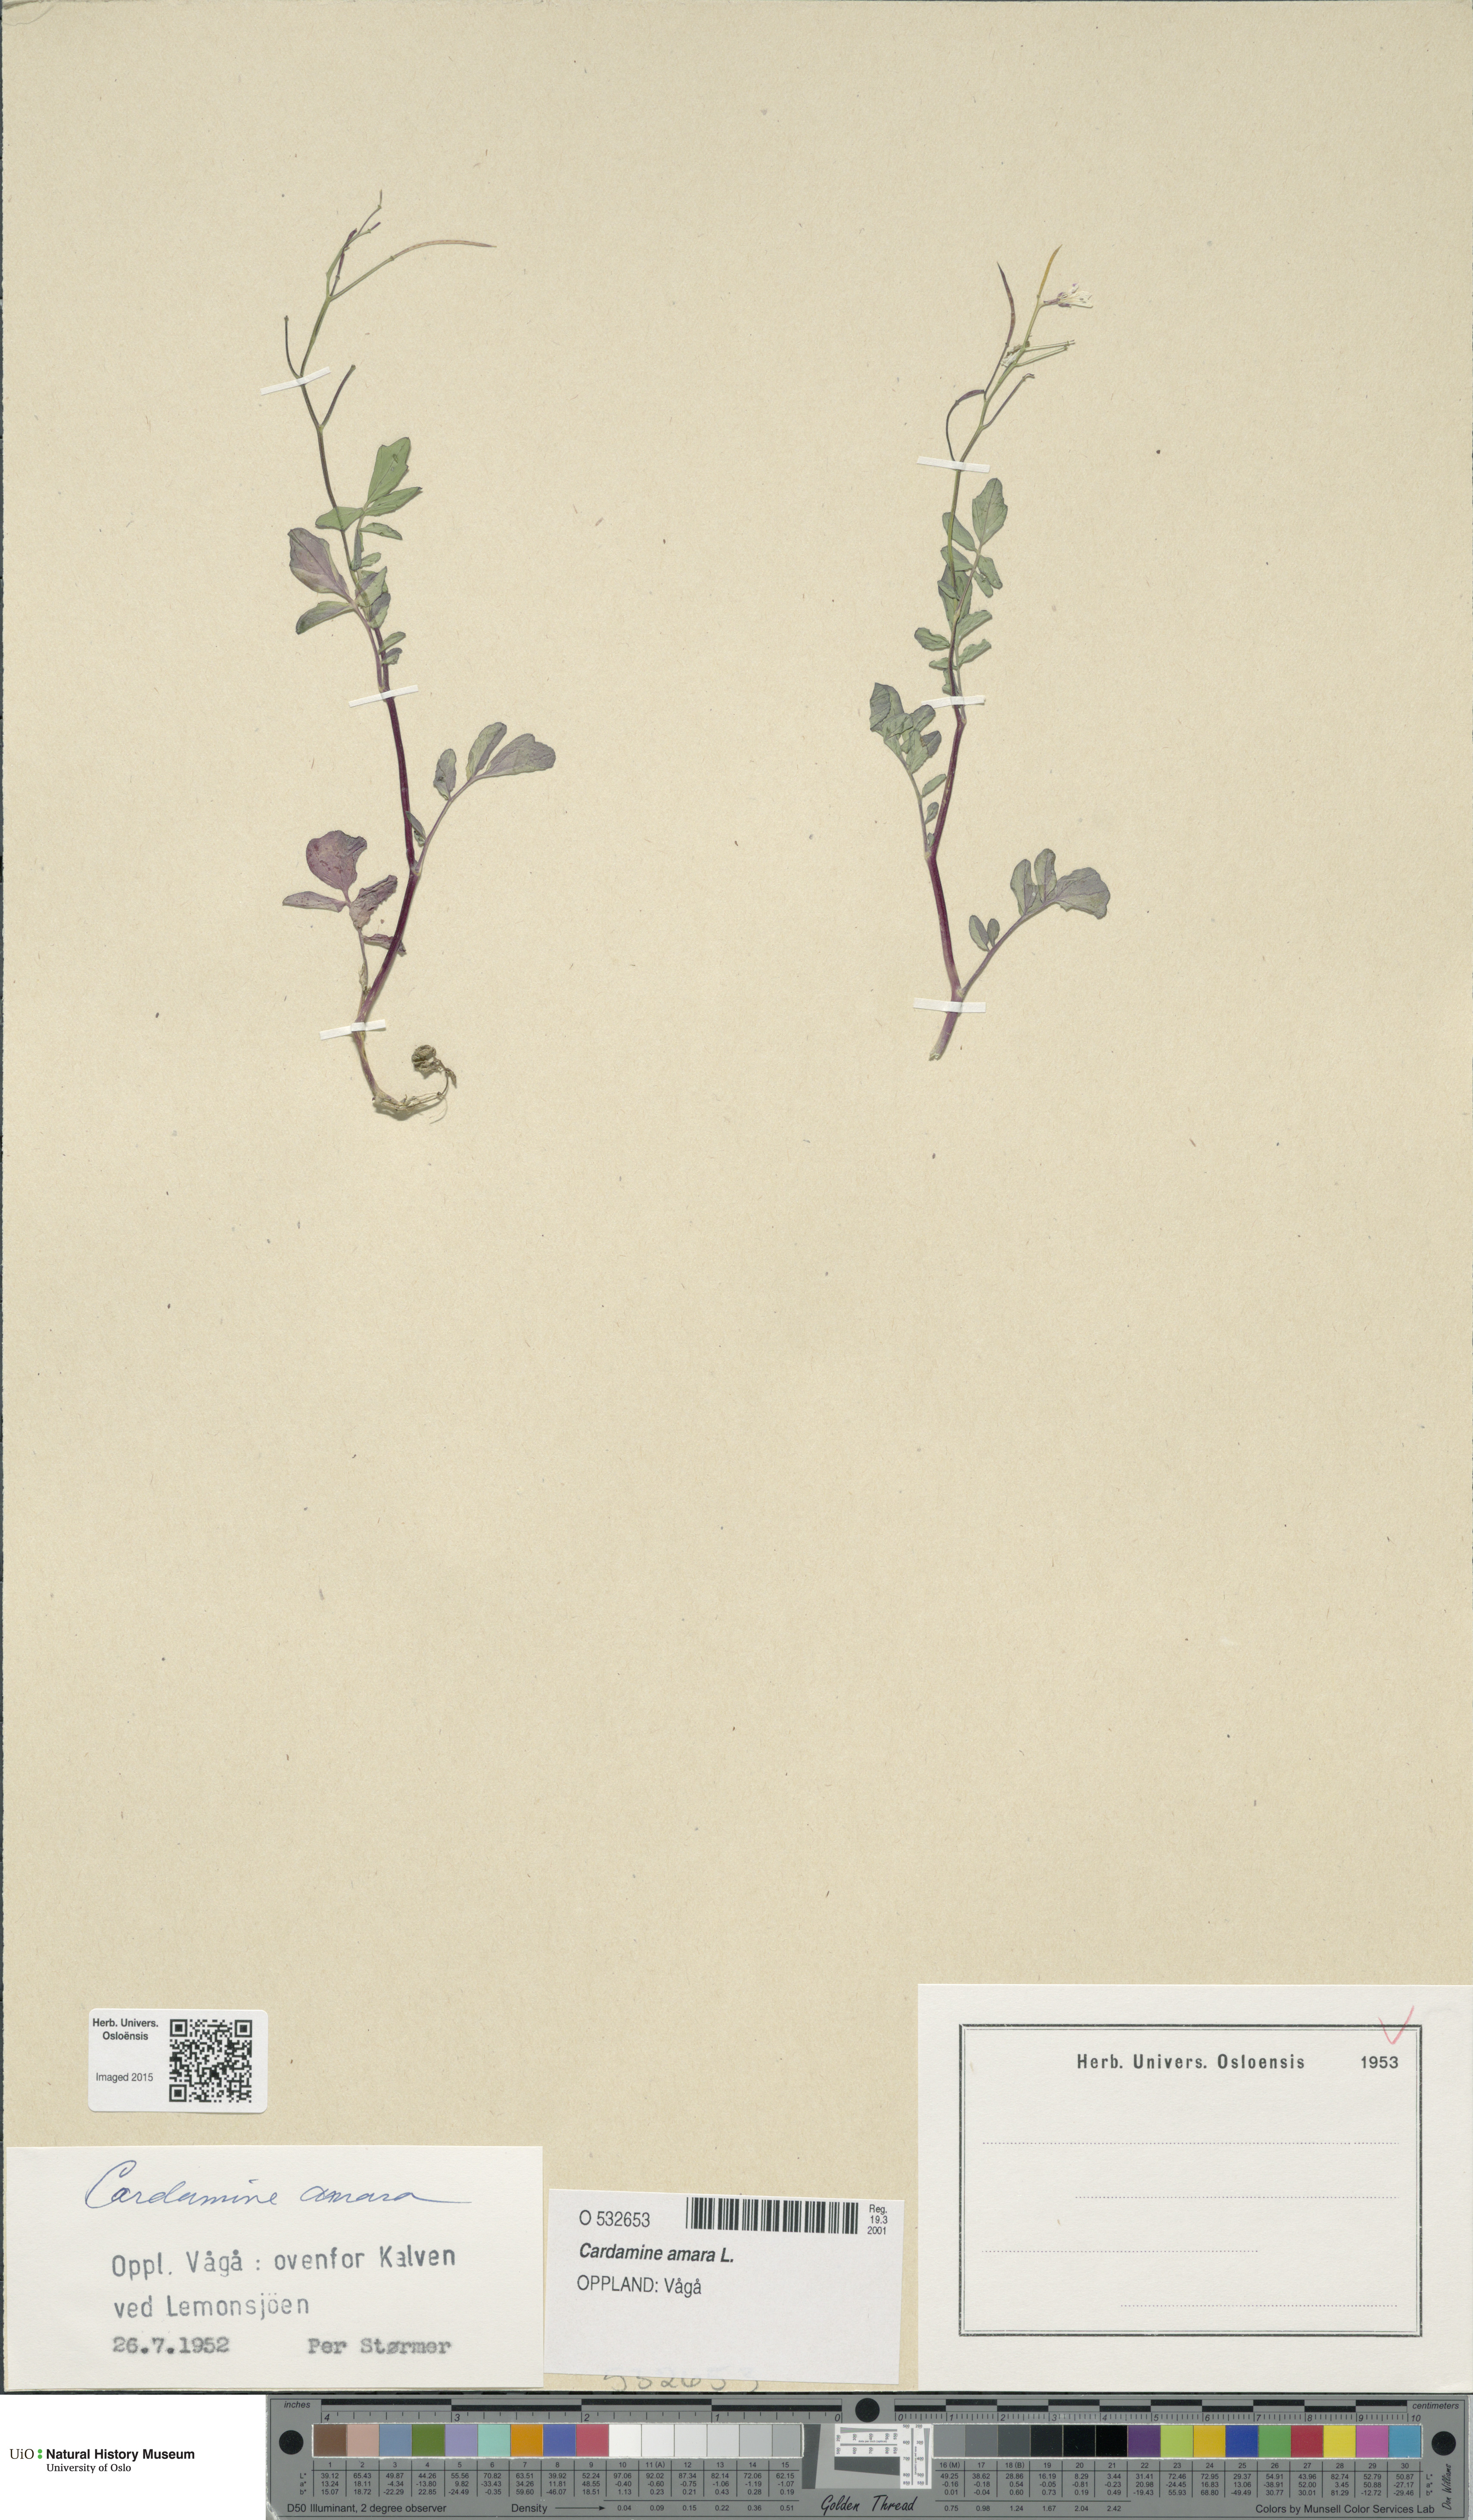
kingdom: Plantae
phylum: Tracheophyta
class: Magnoliopsida
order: Brassicales
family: Brassicaceae
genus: Cardamine
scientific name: Cardamine amara
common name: Large bitter-cress
